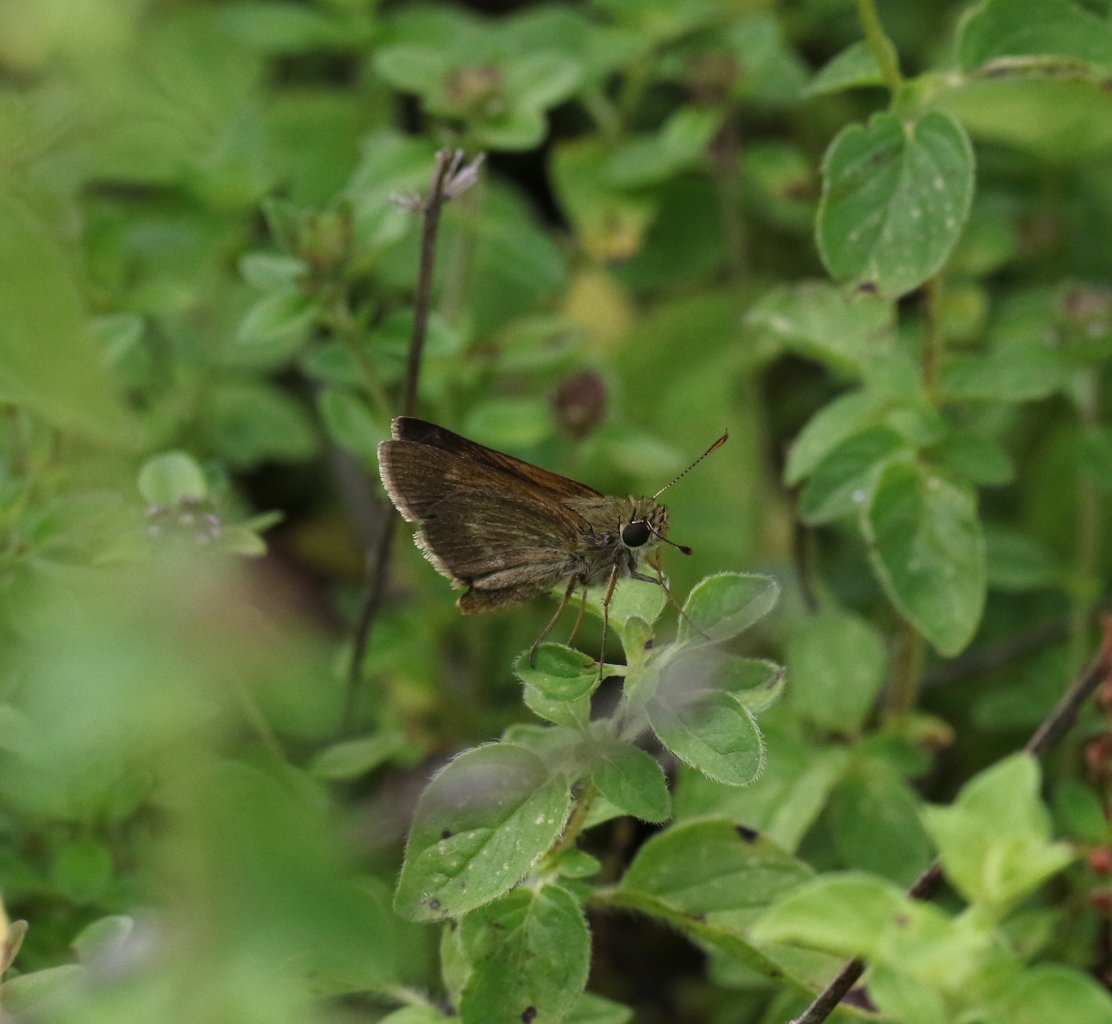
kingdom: Animalia
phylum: Arthropoda
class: Insecta
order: Lepidoptera
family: Hesperiidae
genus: Euphyes
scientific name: Euphyes
